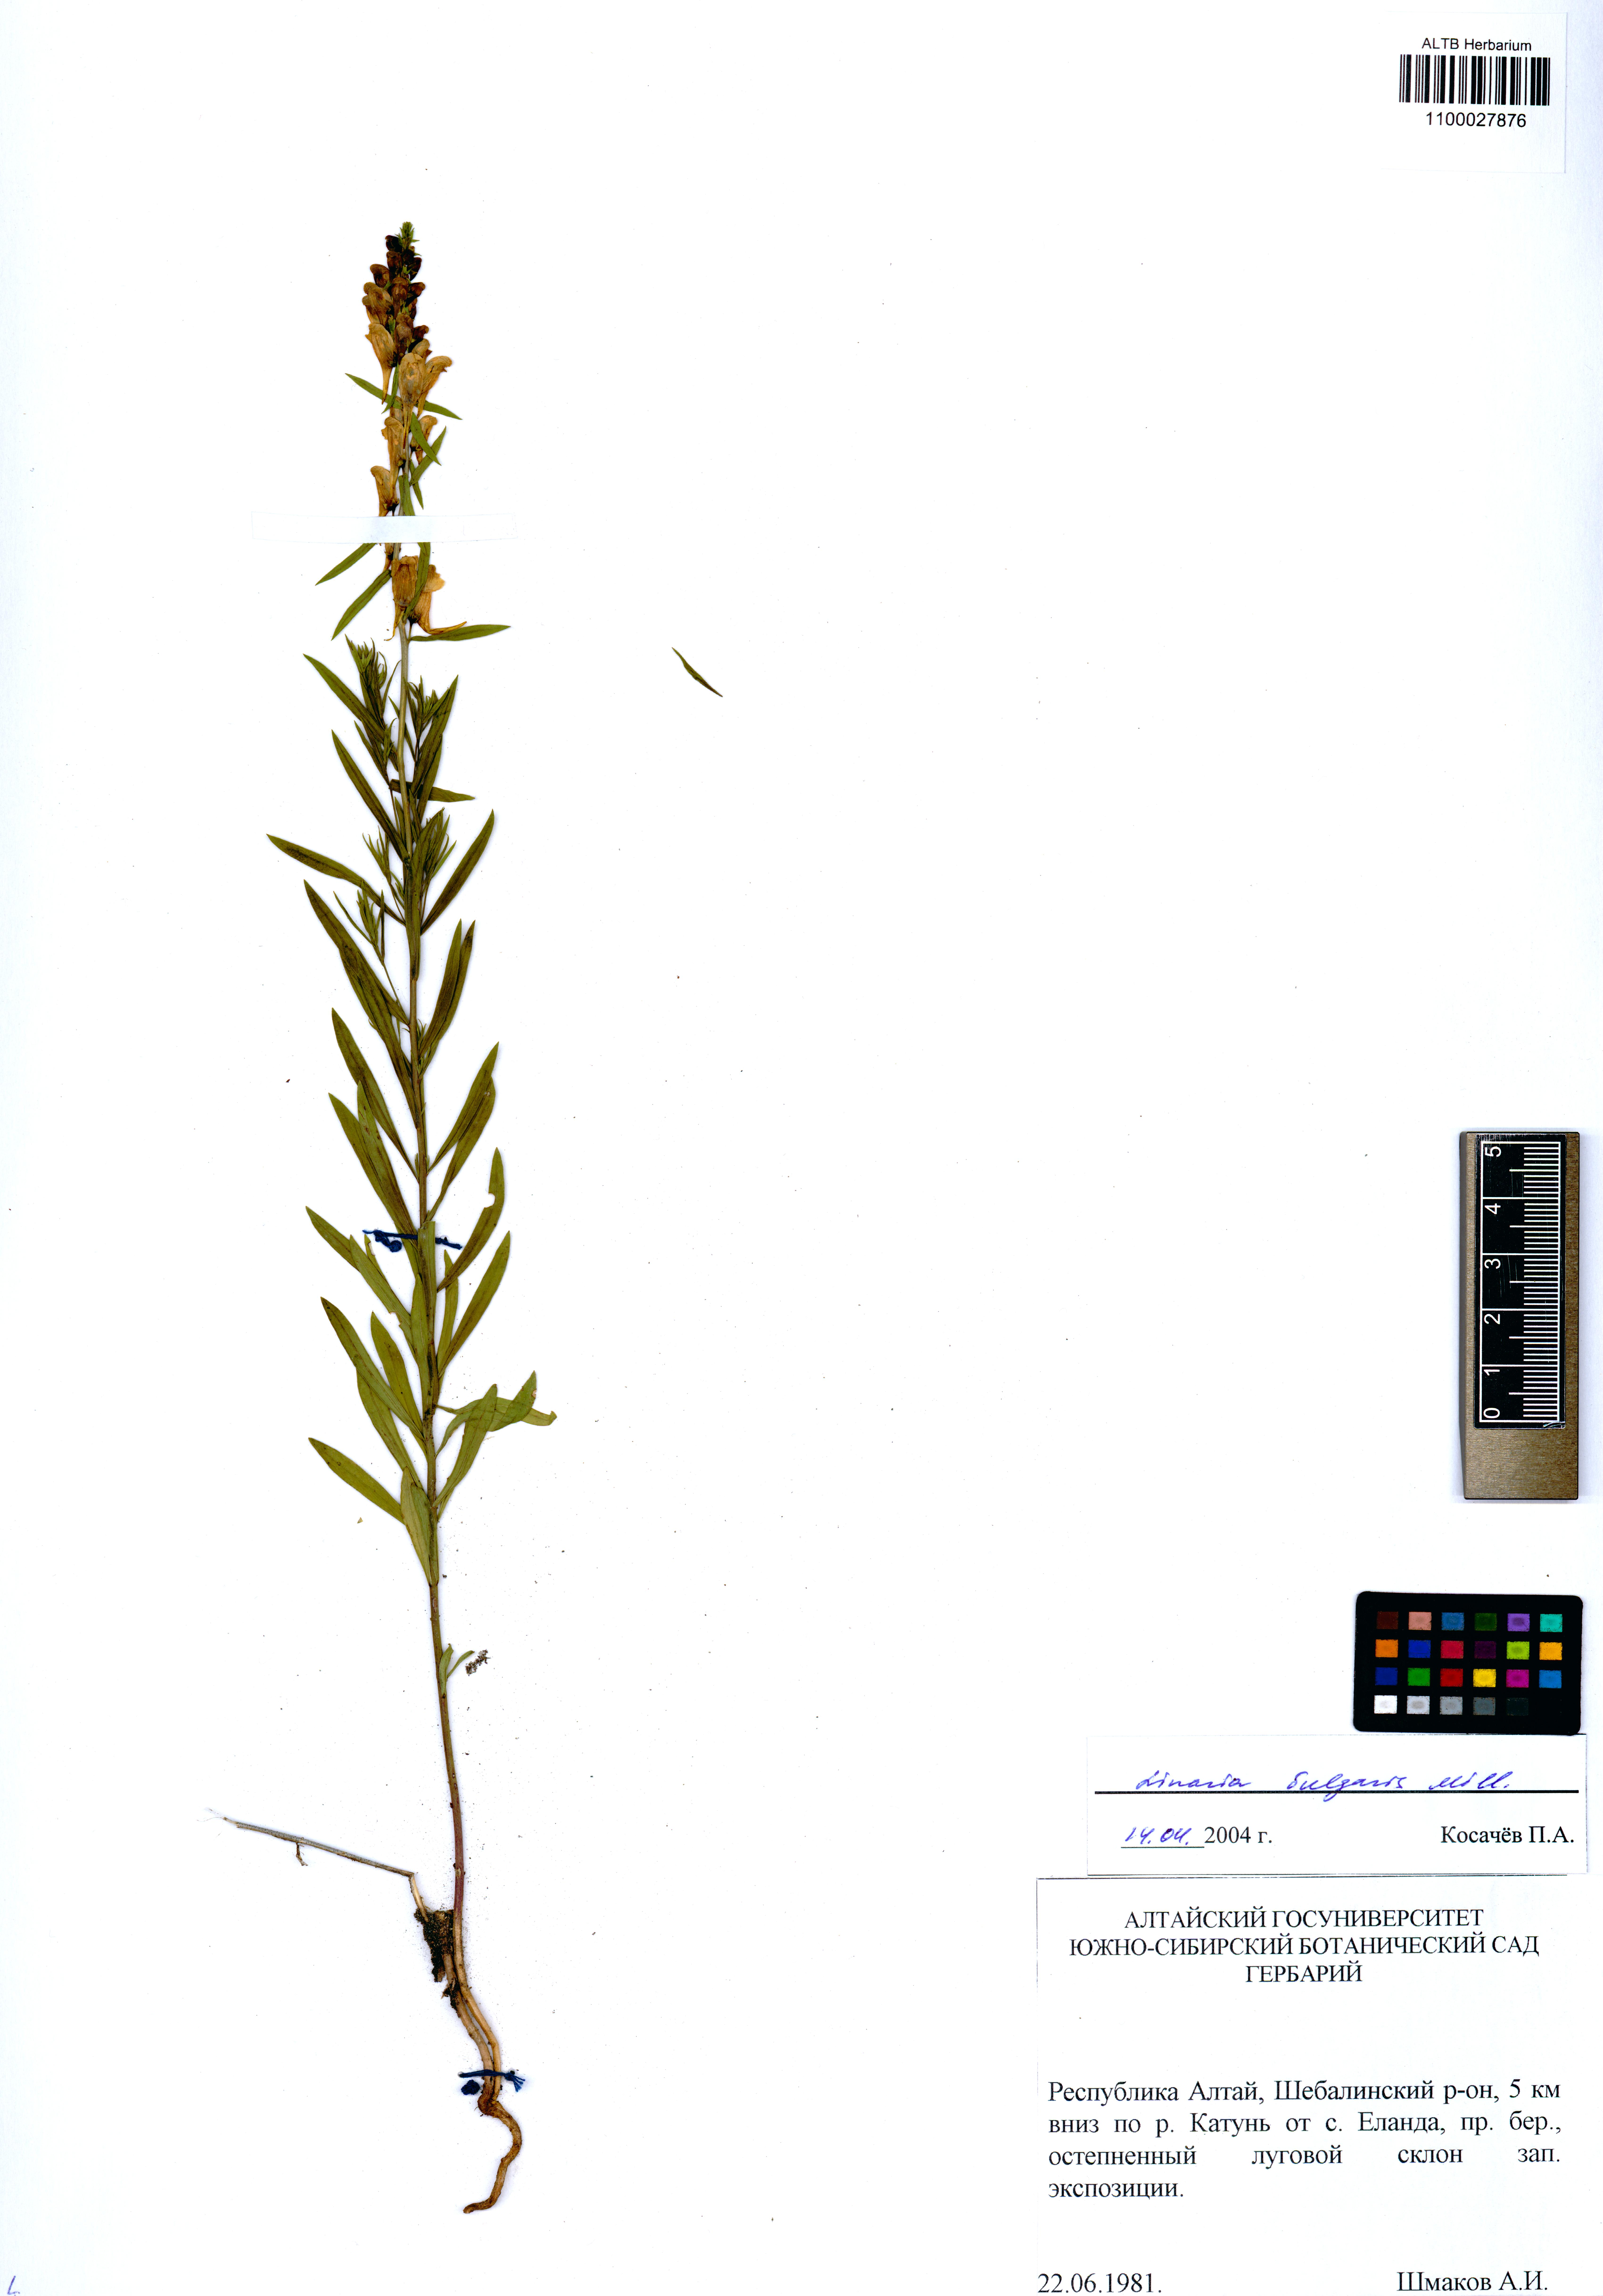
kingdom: Plantae
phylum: Tracheophyta
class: Magnoliopsida
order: Lamiales
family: Plantaginaceae
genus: Linaria
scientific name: Linaria vulgaris
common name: Butter and eggs
